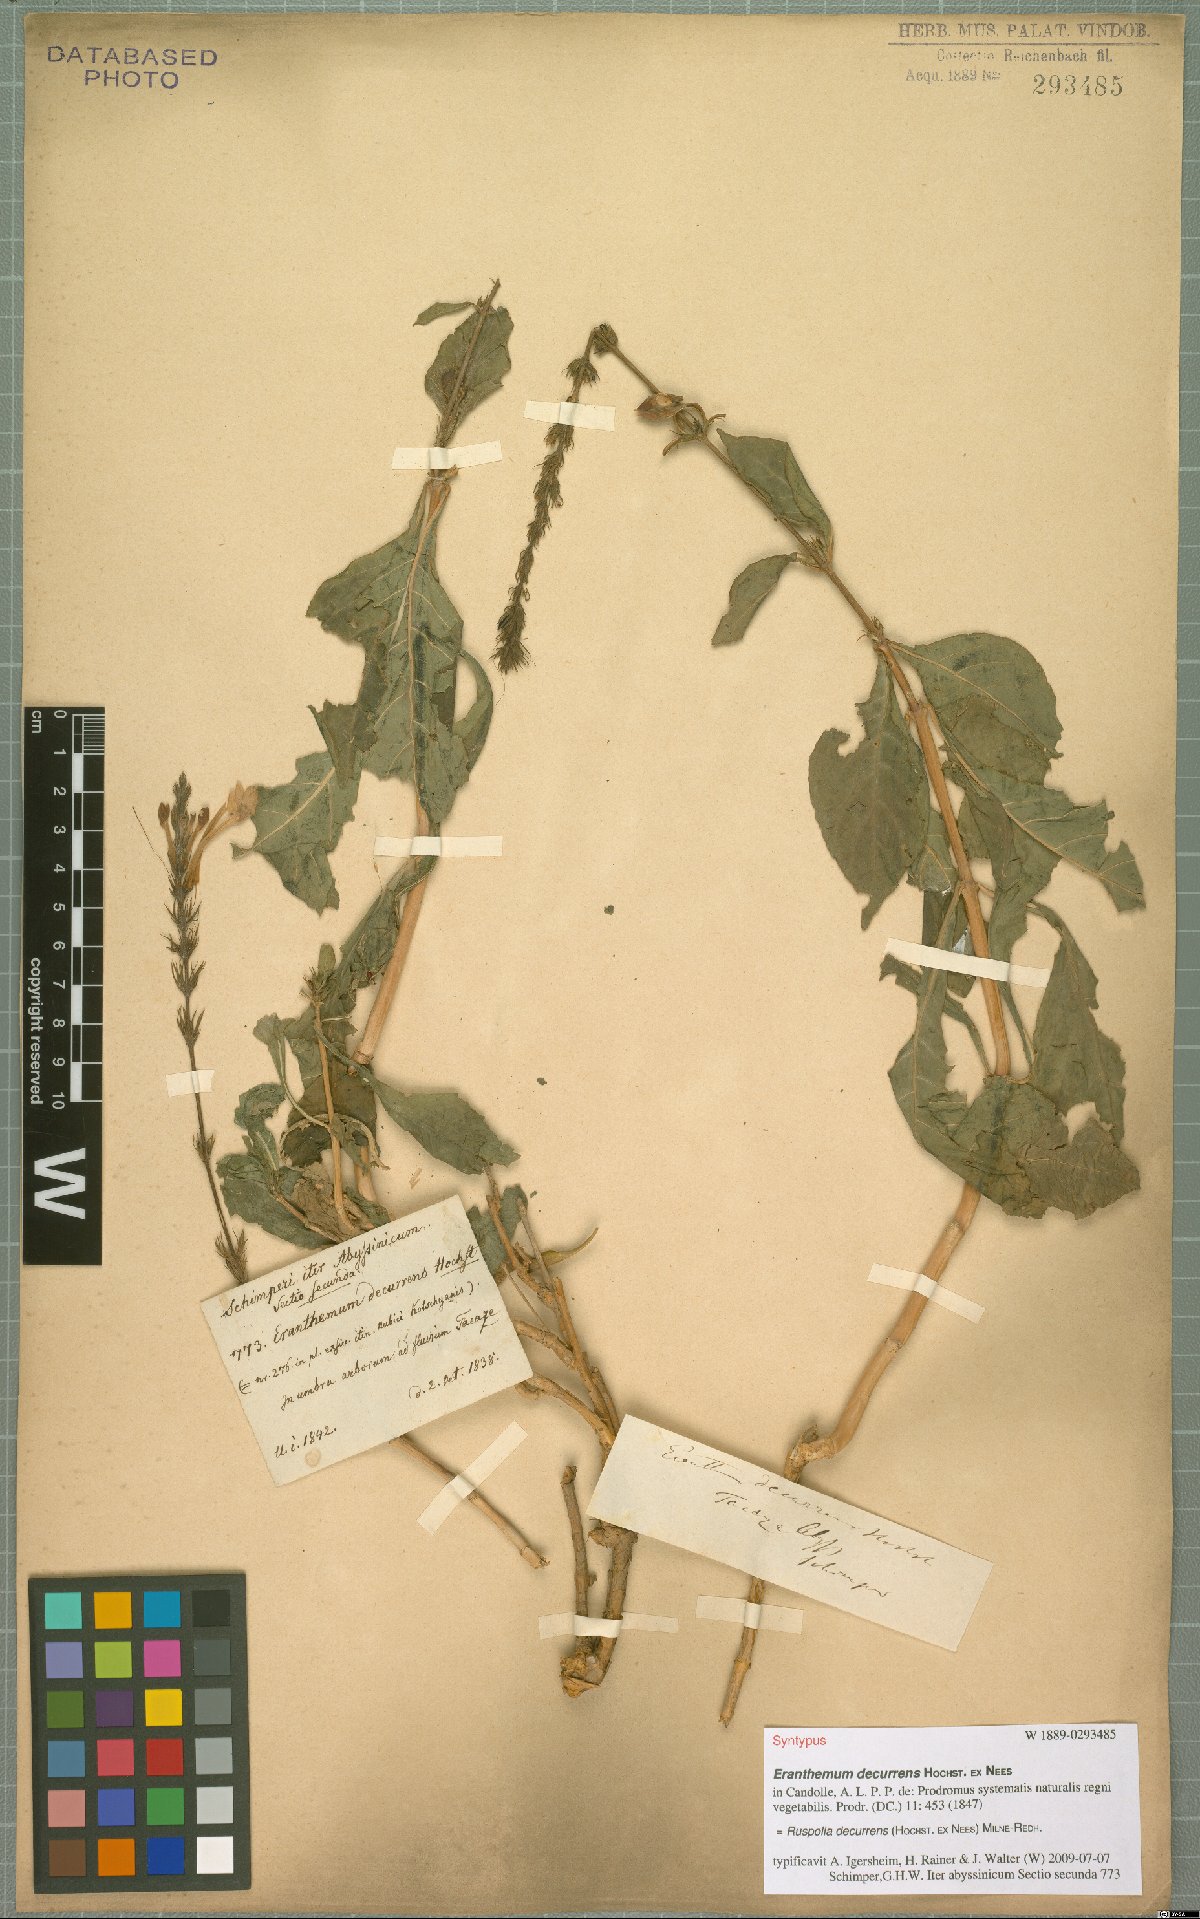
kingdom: Plantae
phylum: Tracheophyta
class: Magnoliopsida
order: Lamiales
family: Acanthaceae
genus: Ruspolia
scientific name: Ruspolia decurrens
